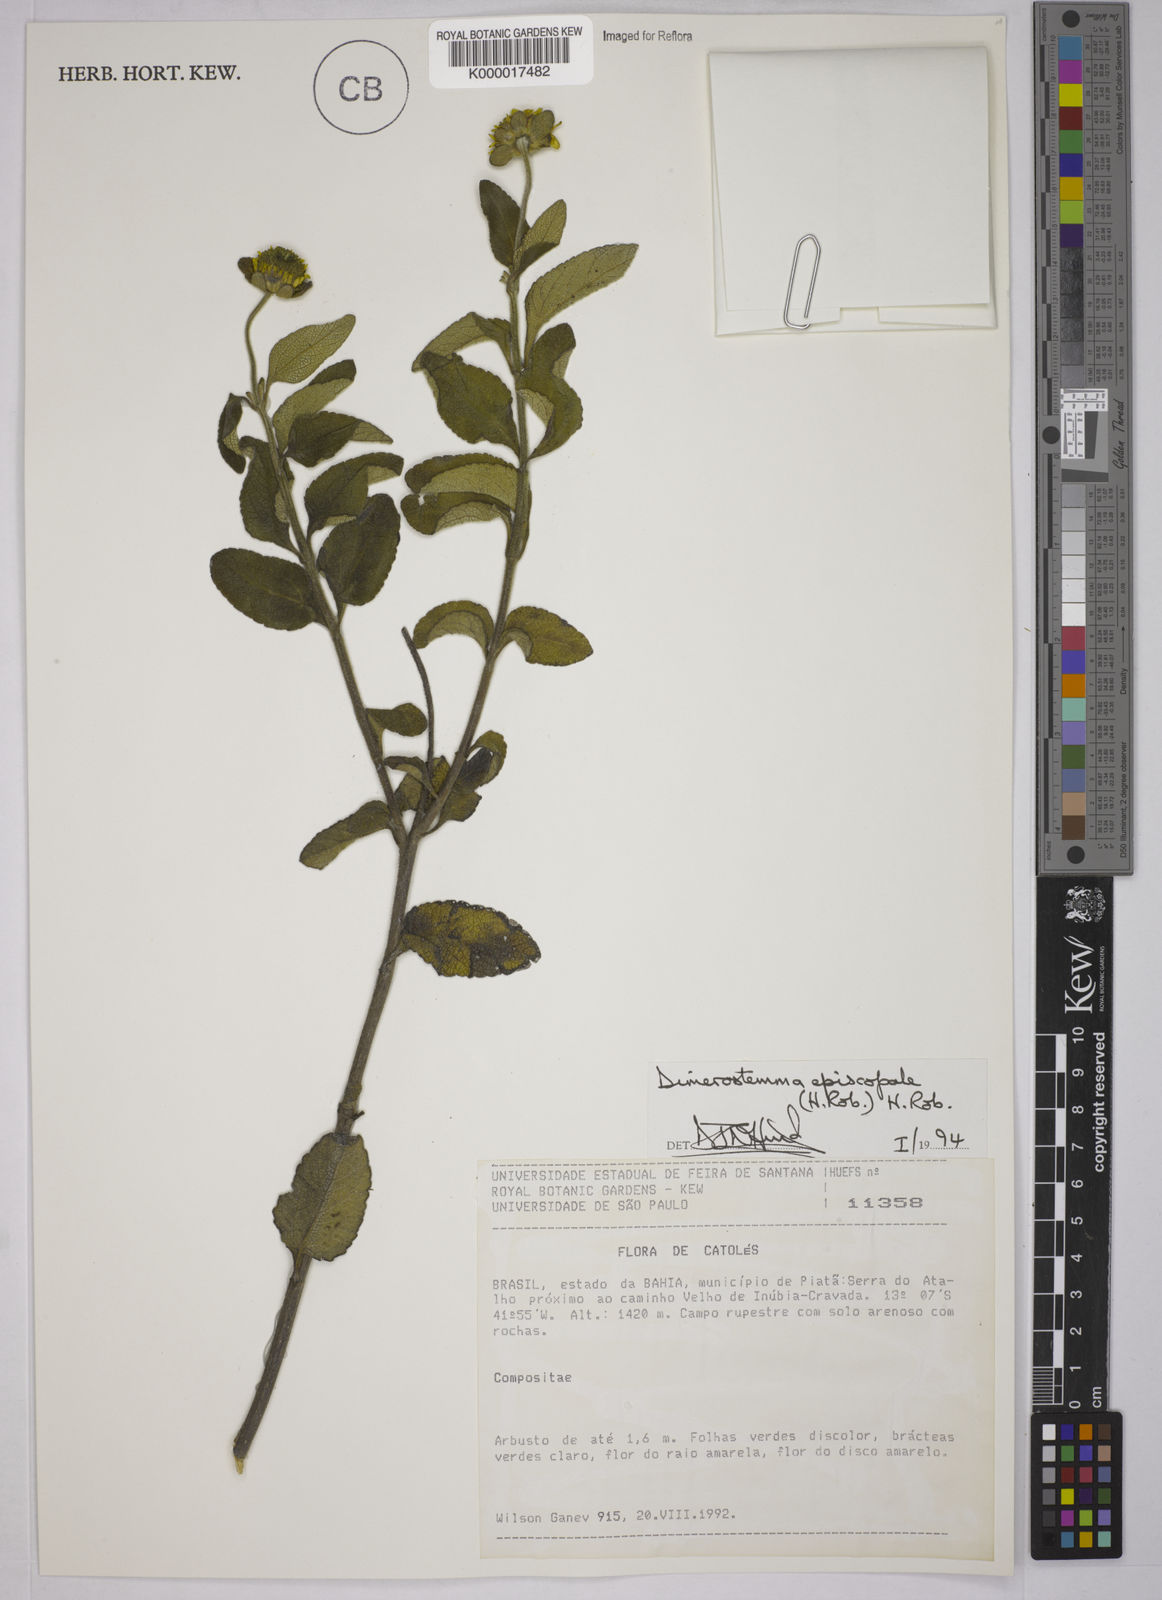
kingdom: Plantae
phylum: Tracheophyta
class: Magnoliopsida
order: Asterales
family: Asteraceae
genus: Dimerostemma
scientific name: Dimerostemma episcopale
